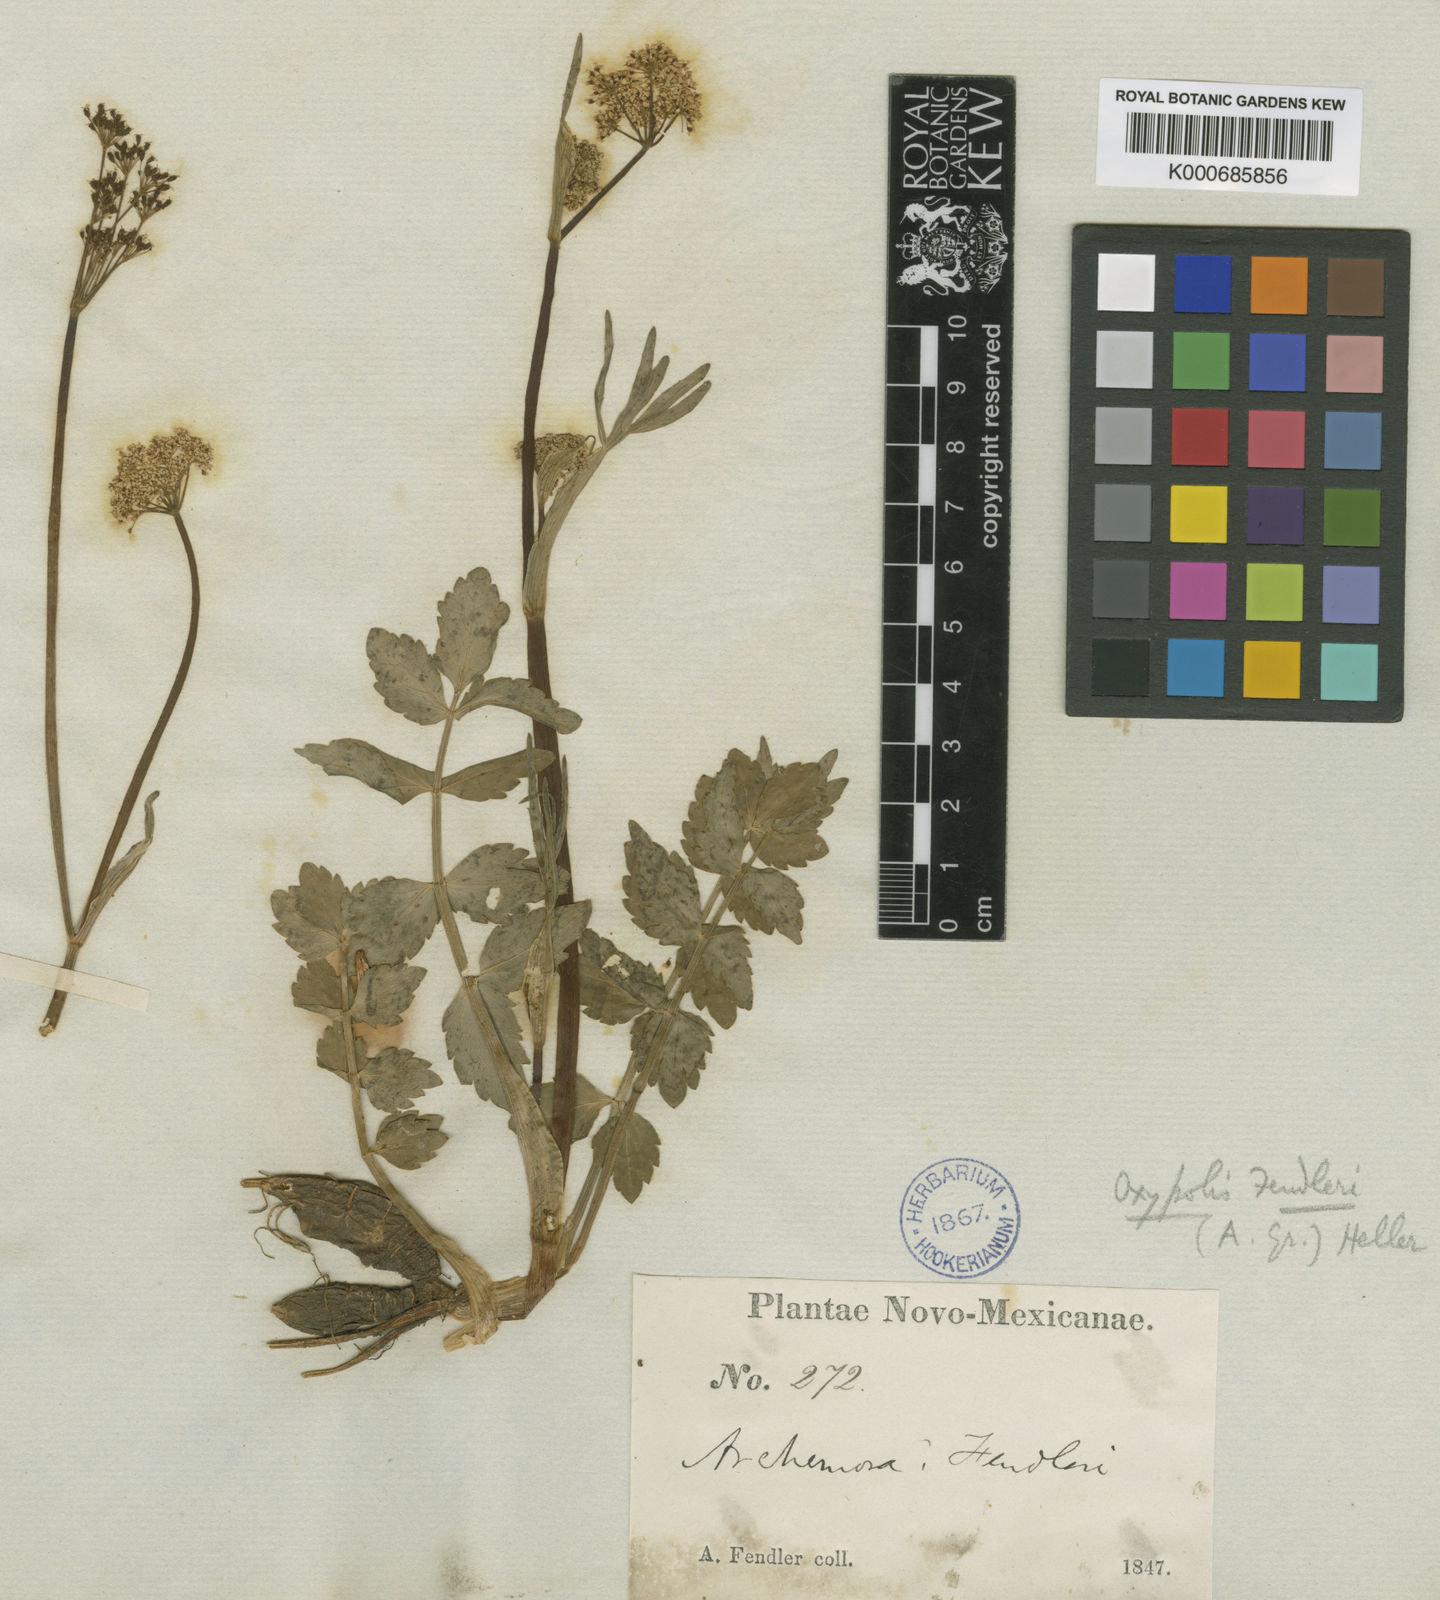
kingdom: Plantae
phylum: Tracheophyta
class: Magnoliopsida
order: Apiales
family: Apiaceae
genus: Oxypolis
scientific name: Oxypolis fendleri
